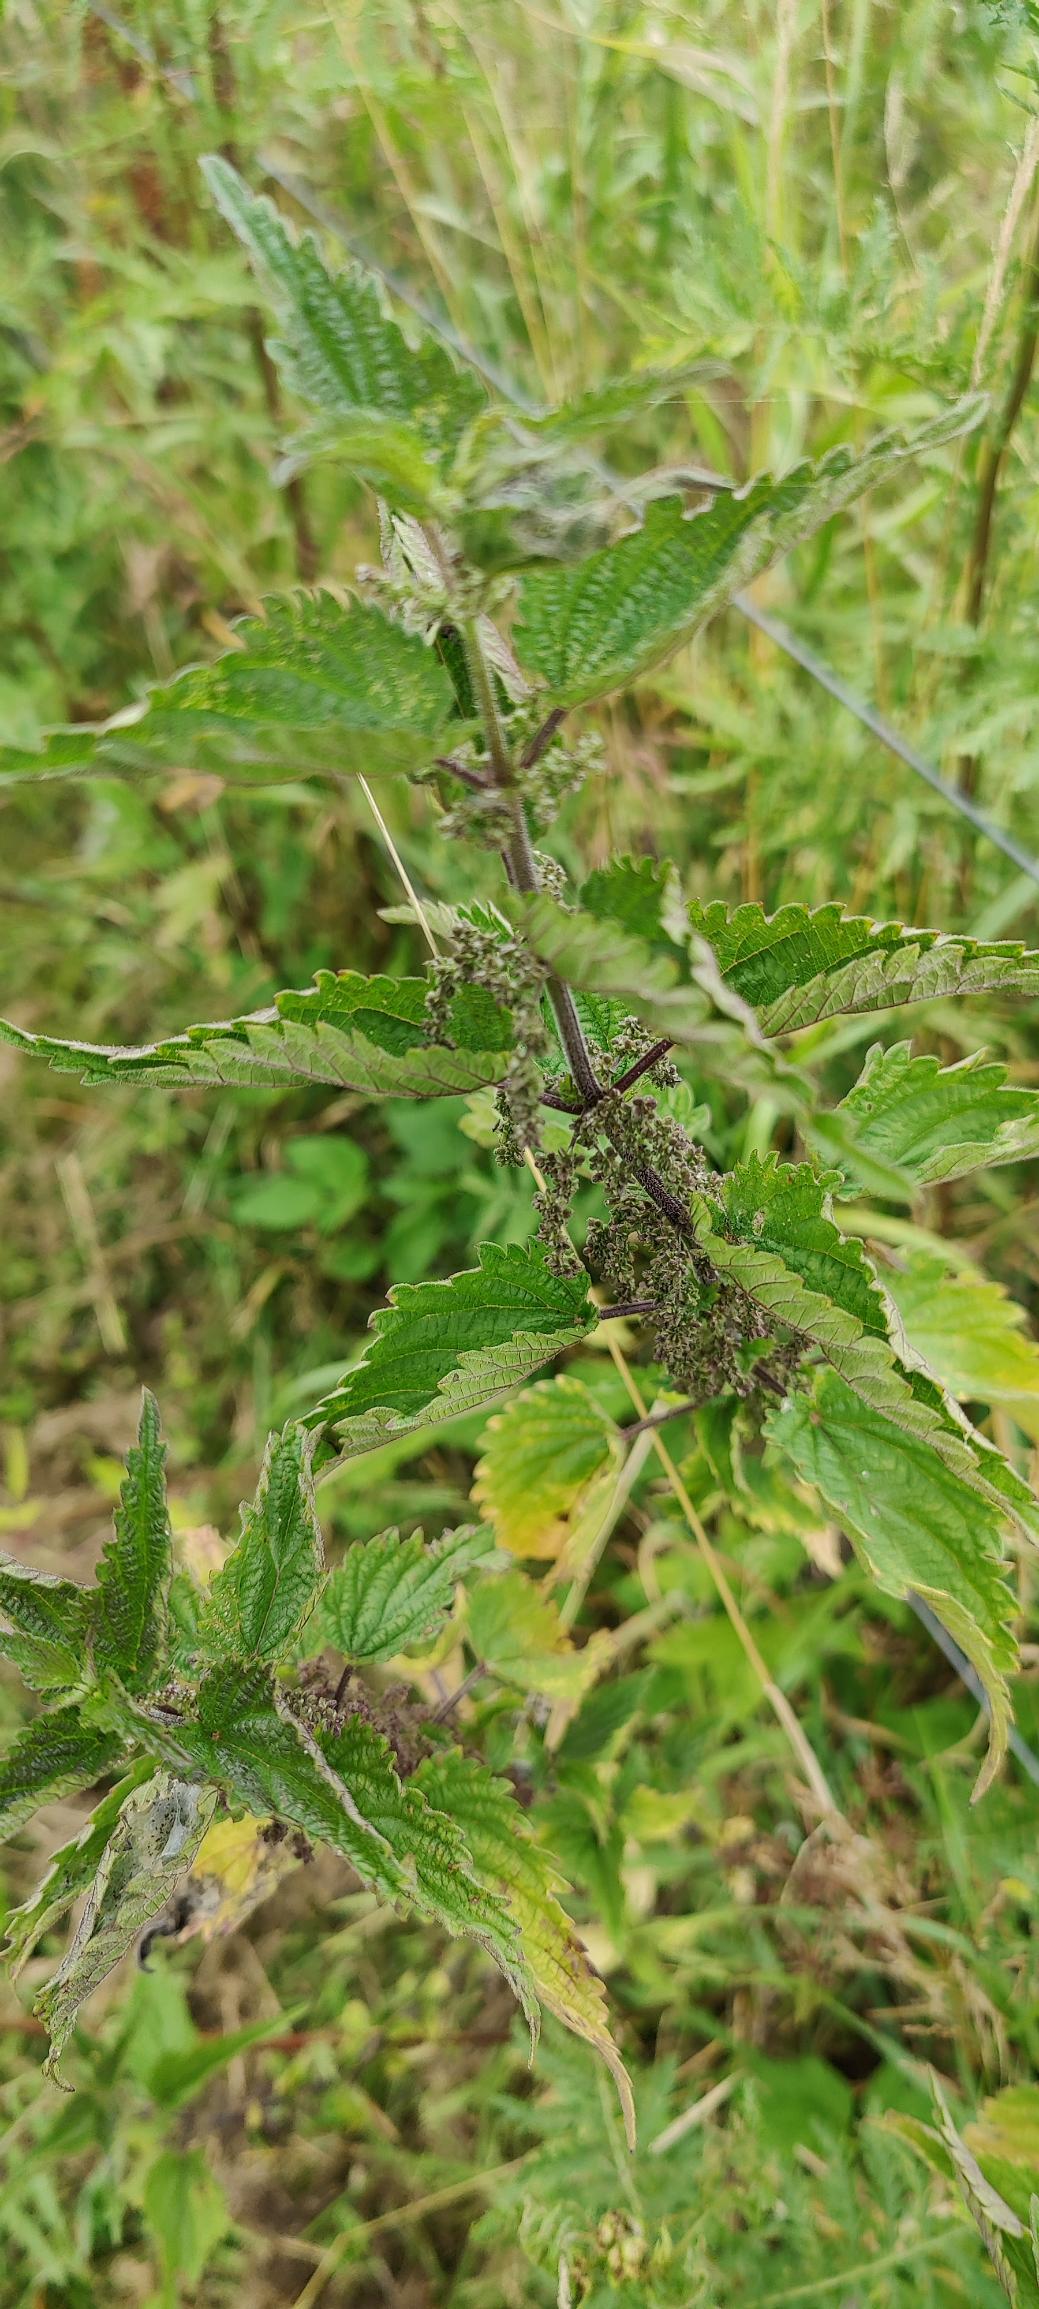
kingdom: Plantae
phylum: Tracheophyta
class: Magnoliopsida
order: Rosales
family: Urticaceae
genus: Urtica
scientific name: Urtica dioica
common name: Stor nælde
